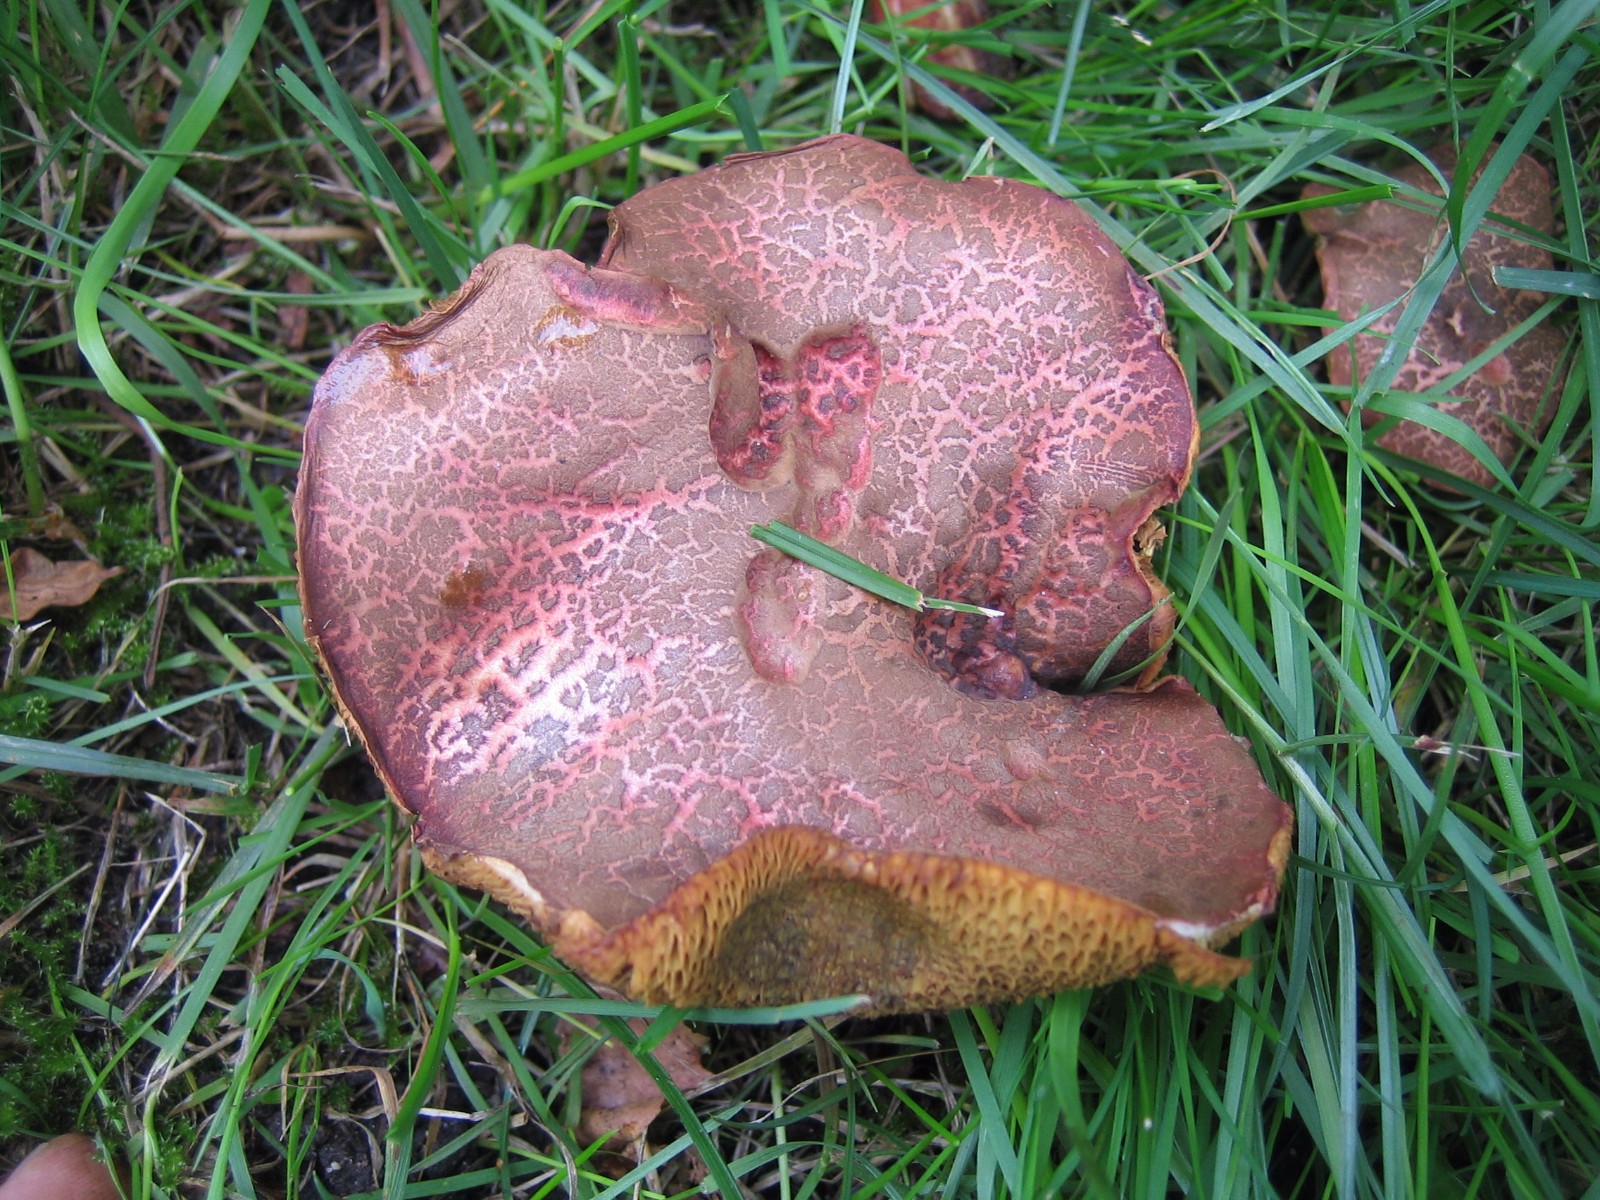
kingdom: Fungi
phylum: Basidiomycota
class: Agaricomycetes
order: Boletales
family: Boletaceae
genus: Xerocomellus
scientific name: Xerocomellus chrysenteron
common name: rødsprukken rørhat
